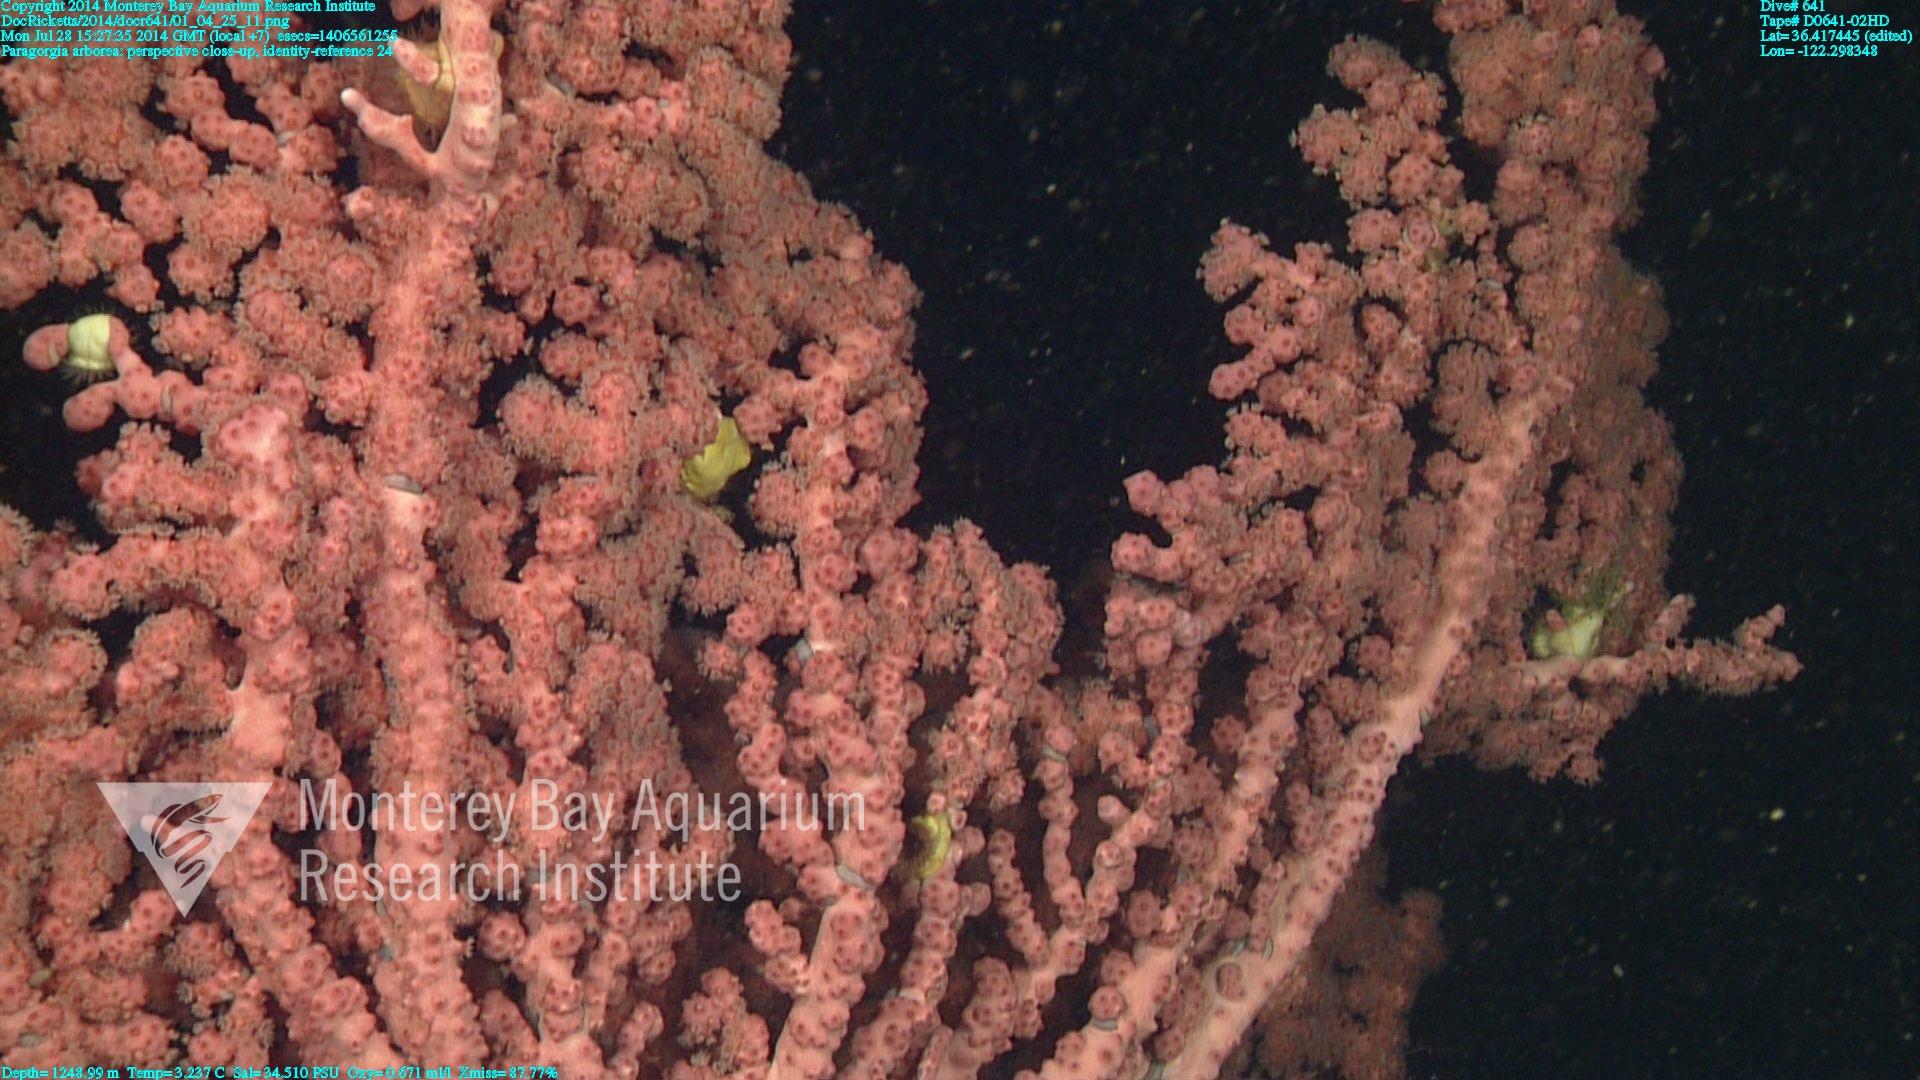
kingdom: Animalia
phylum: Cnidaria
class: Anthozoa
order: Scleralcyonacea
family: Coralliidae
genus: Paragorgia
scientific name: Paragorgia arborea
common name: Bubble gum coral
